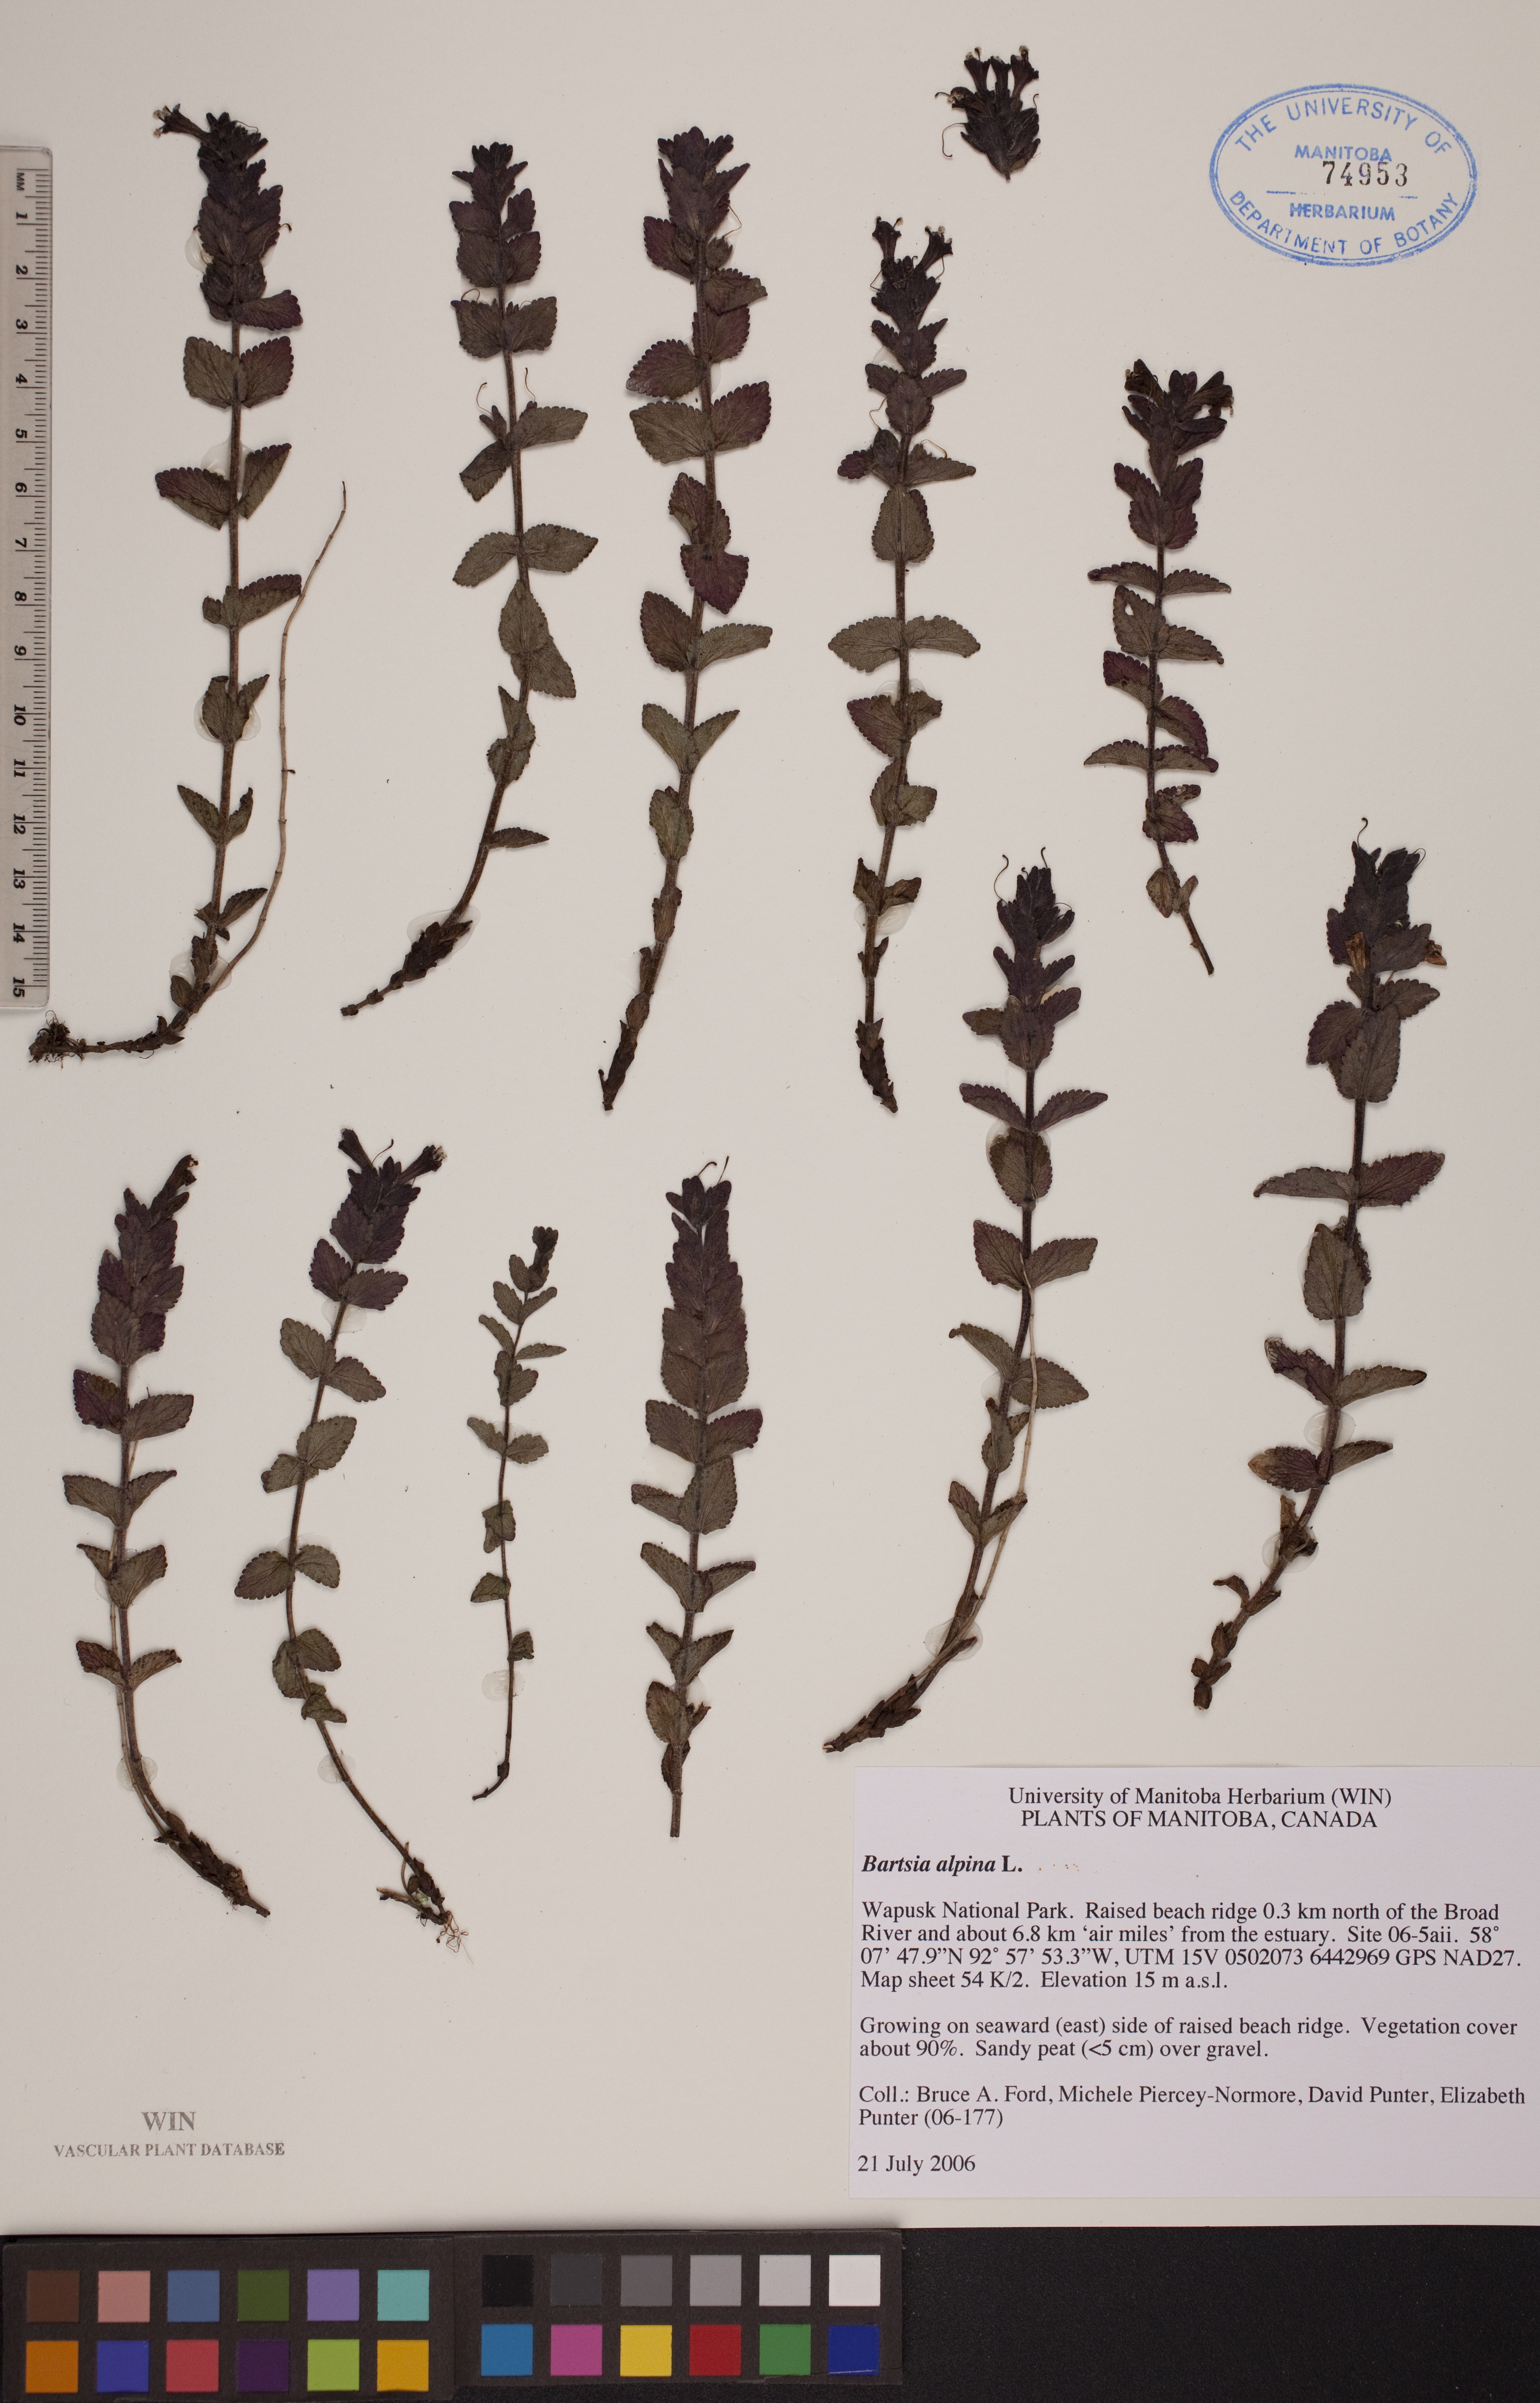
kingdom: Plantae
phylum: Tracheophyta
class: Magnoliopsida
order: Lamiales
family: Orobanchaceae
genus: Bartsia
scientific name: Bartsia alpina
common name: Alpine bartsia
